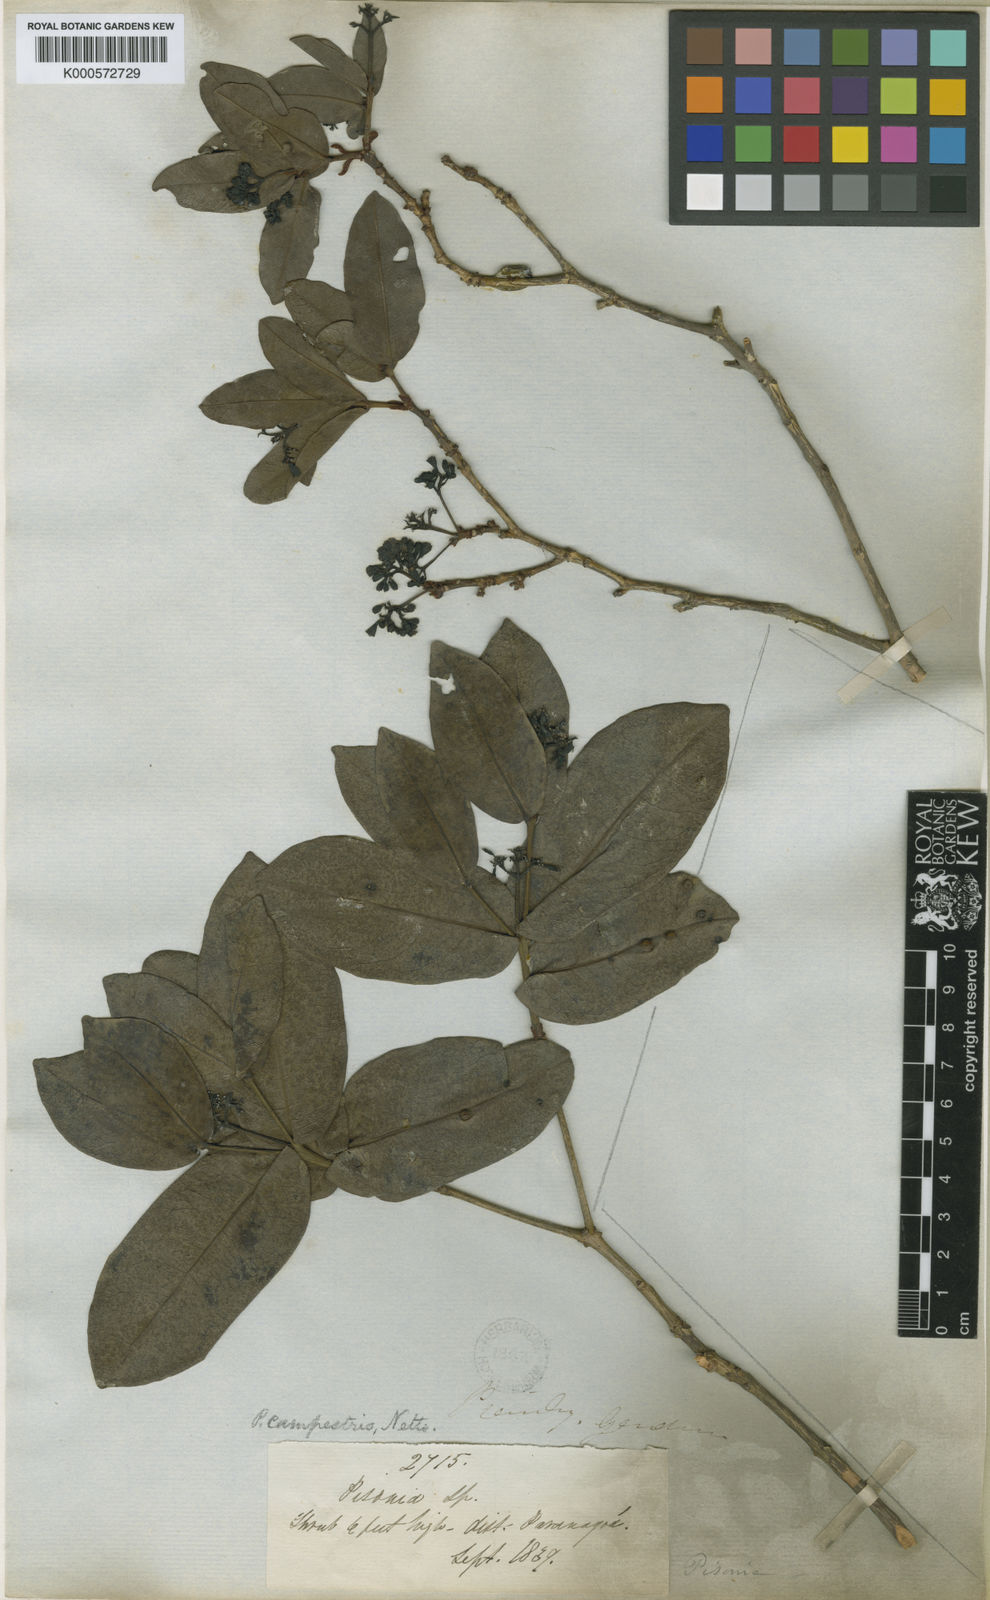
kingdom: Plantae
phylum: Tracheophyta
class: Magnoliopsida
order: Caryophyllales
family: Nyctaginaceae
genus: Guapira
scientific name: Guapira campestris
